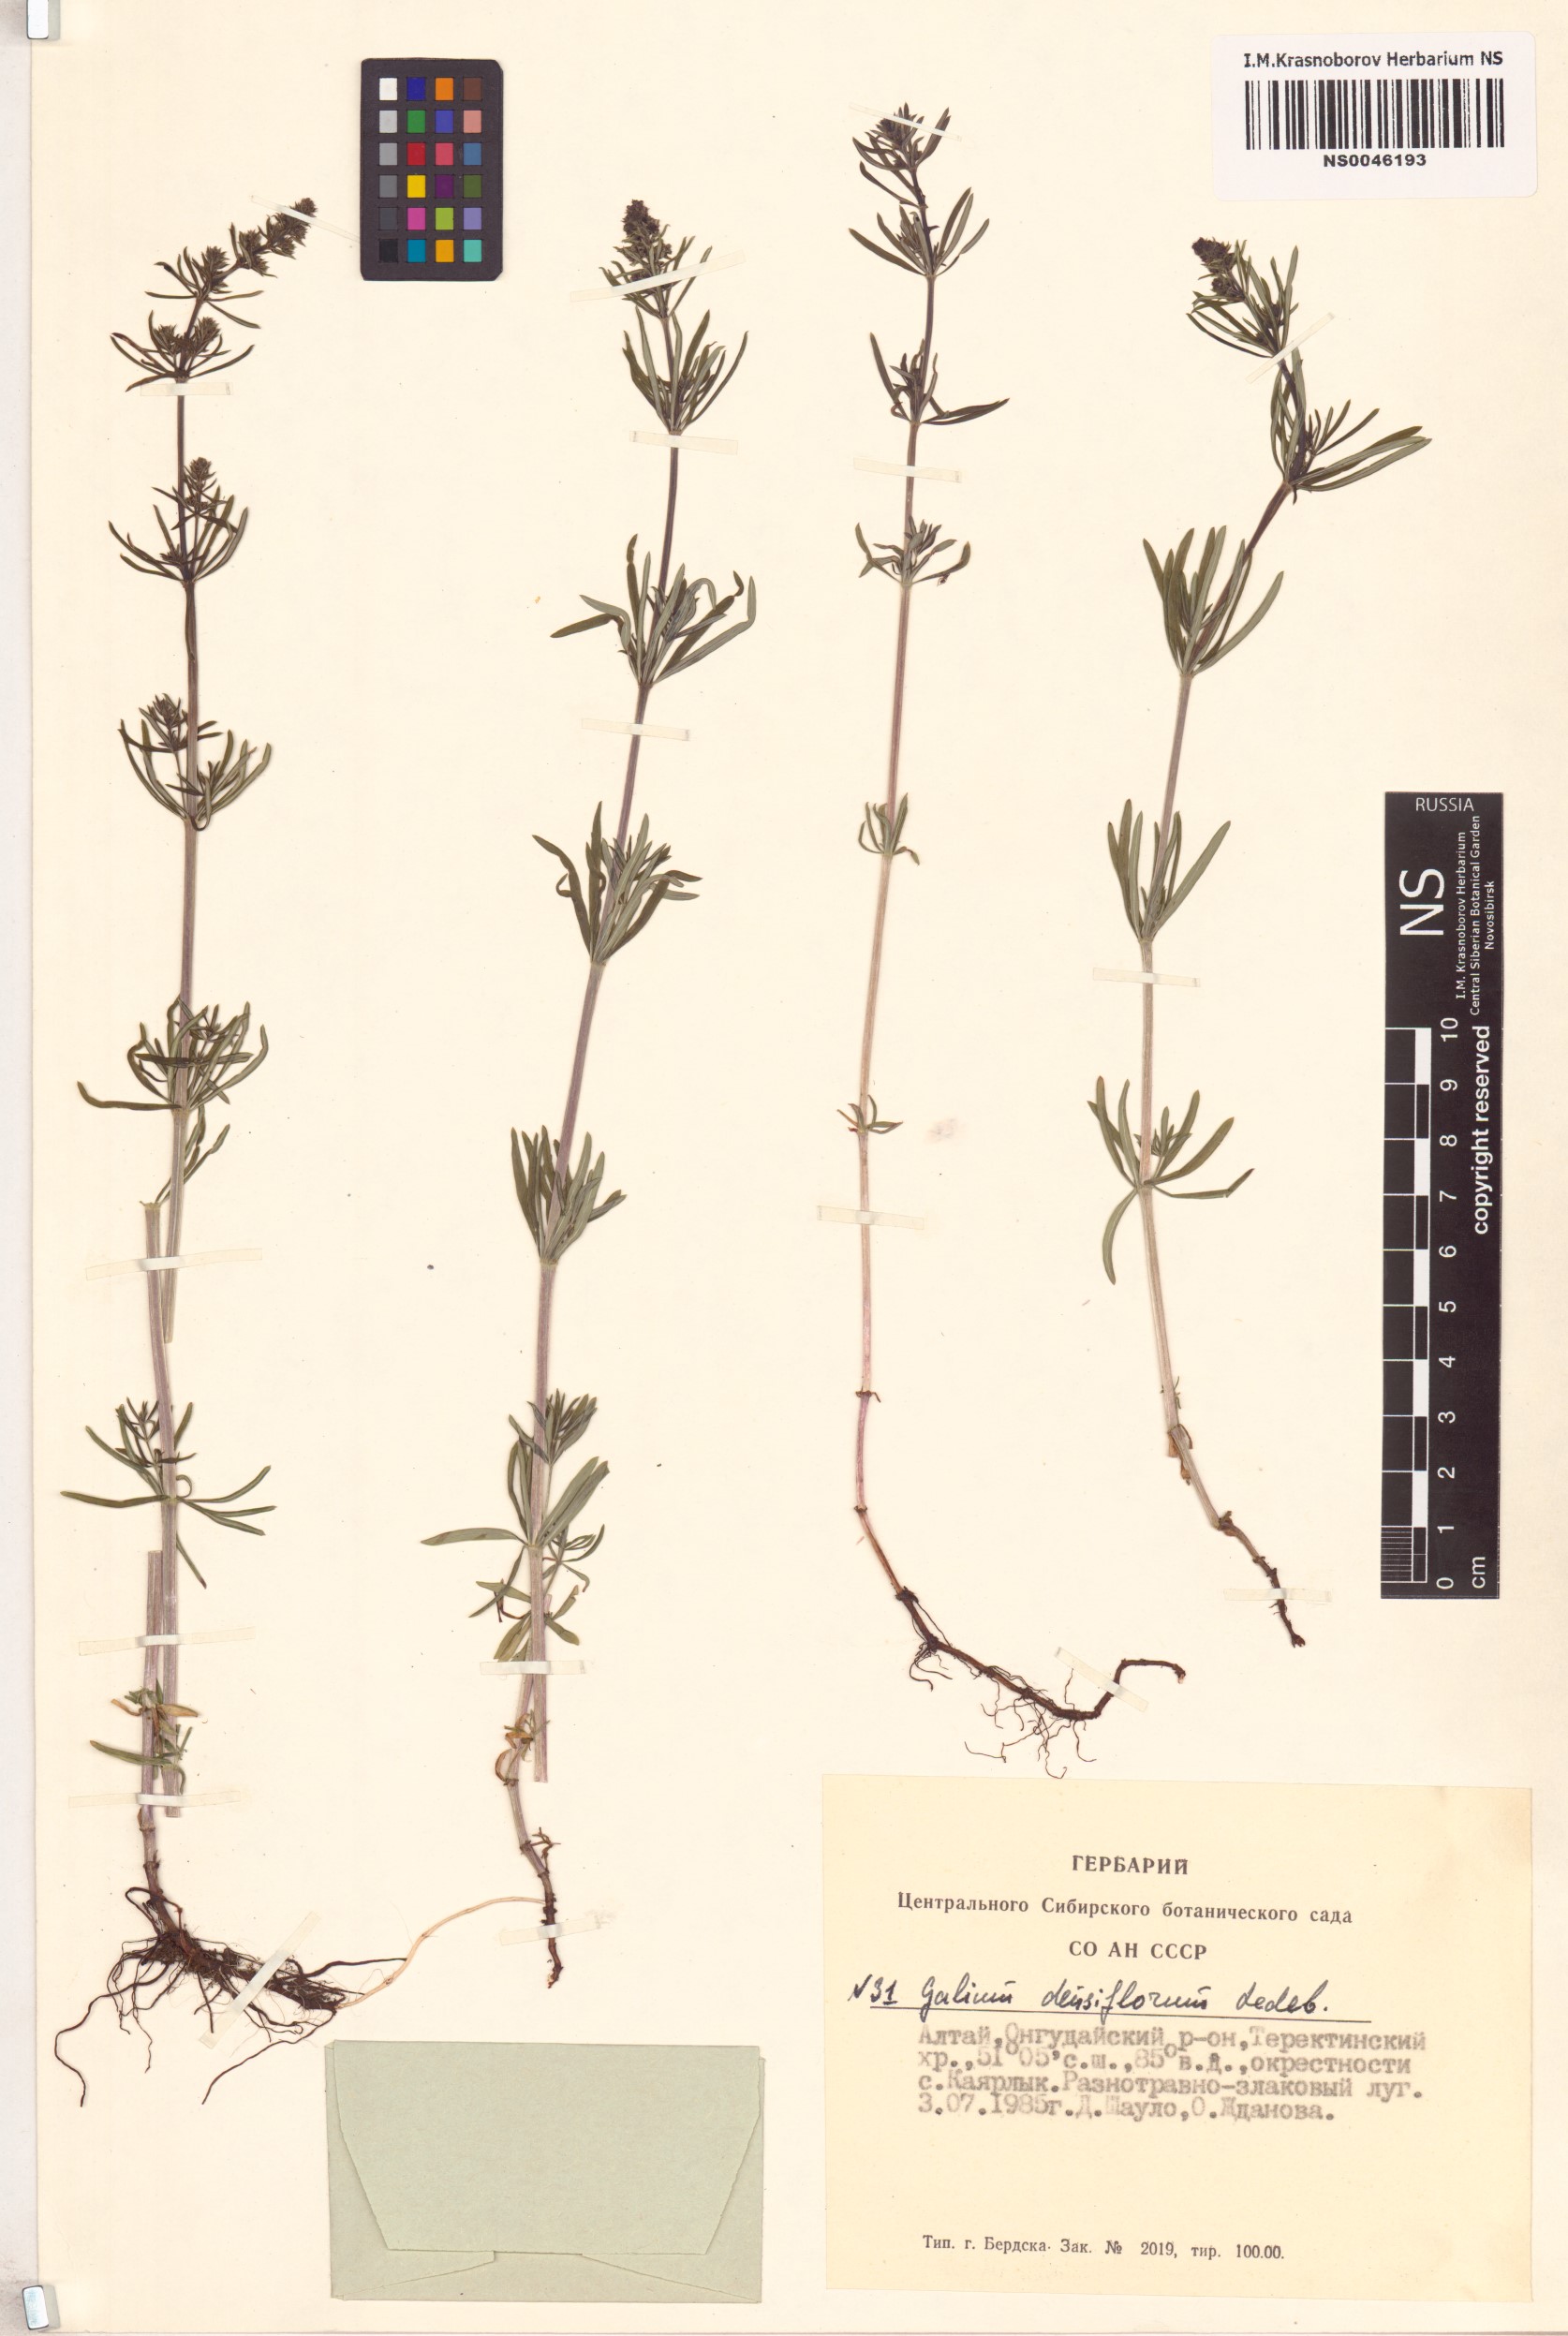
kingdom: Plantae
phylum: Tracheophyta
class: Magnoliopsida
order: Gentianales
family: Rubiaceae
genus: Galium
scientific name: Galium densiflorum
